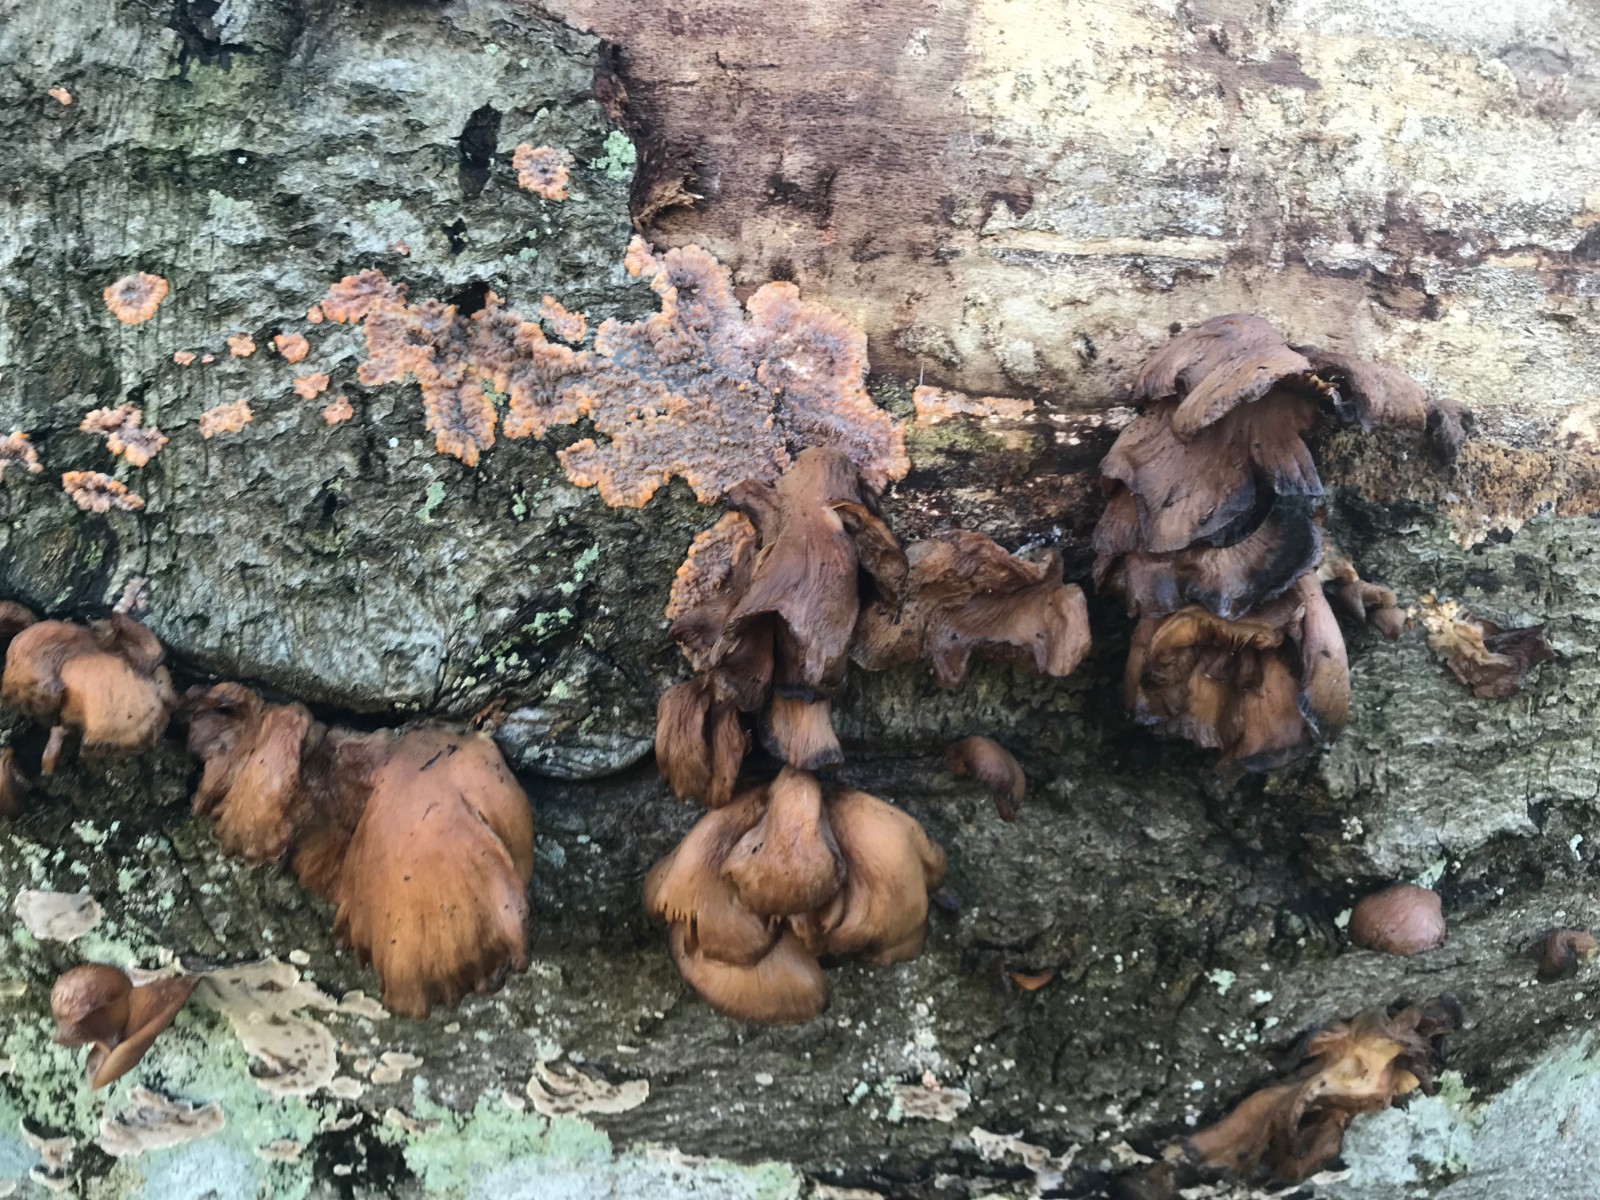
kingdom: Fungi
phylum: Basidiomycota
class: Agaricomycetes
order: Polyporales
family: Meruliaceae
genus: Phlebia
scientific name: Phlebia radiata
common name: stråle-åresvamp
